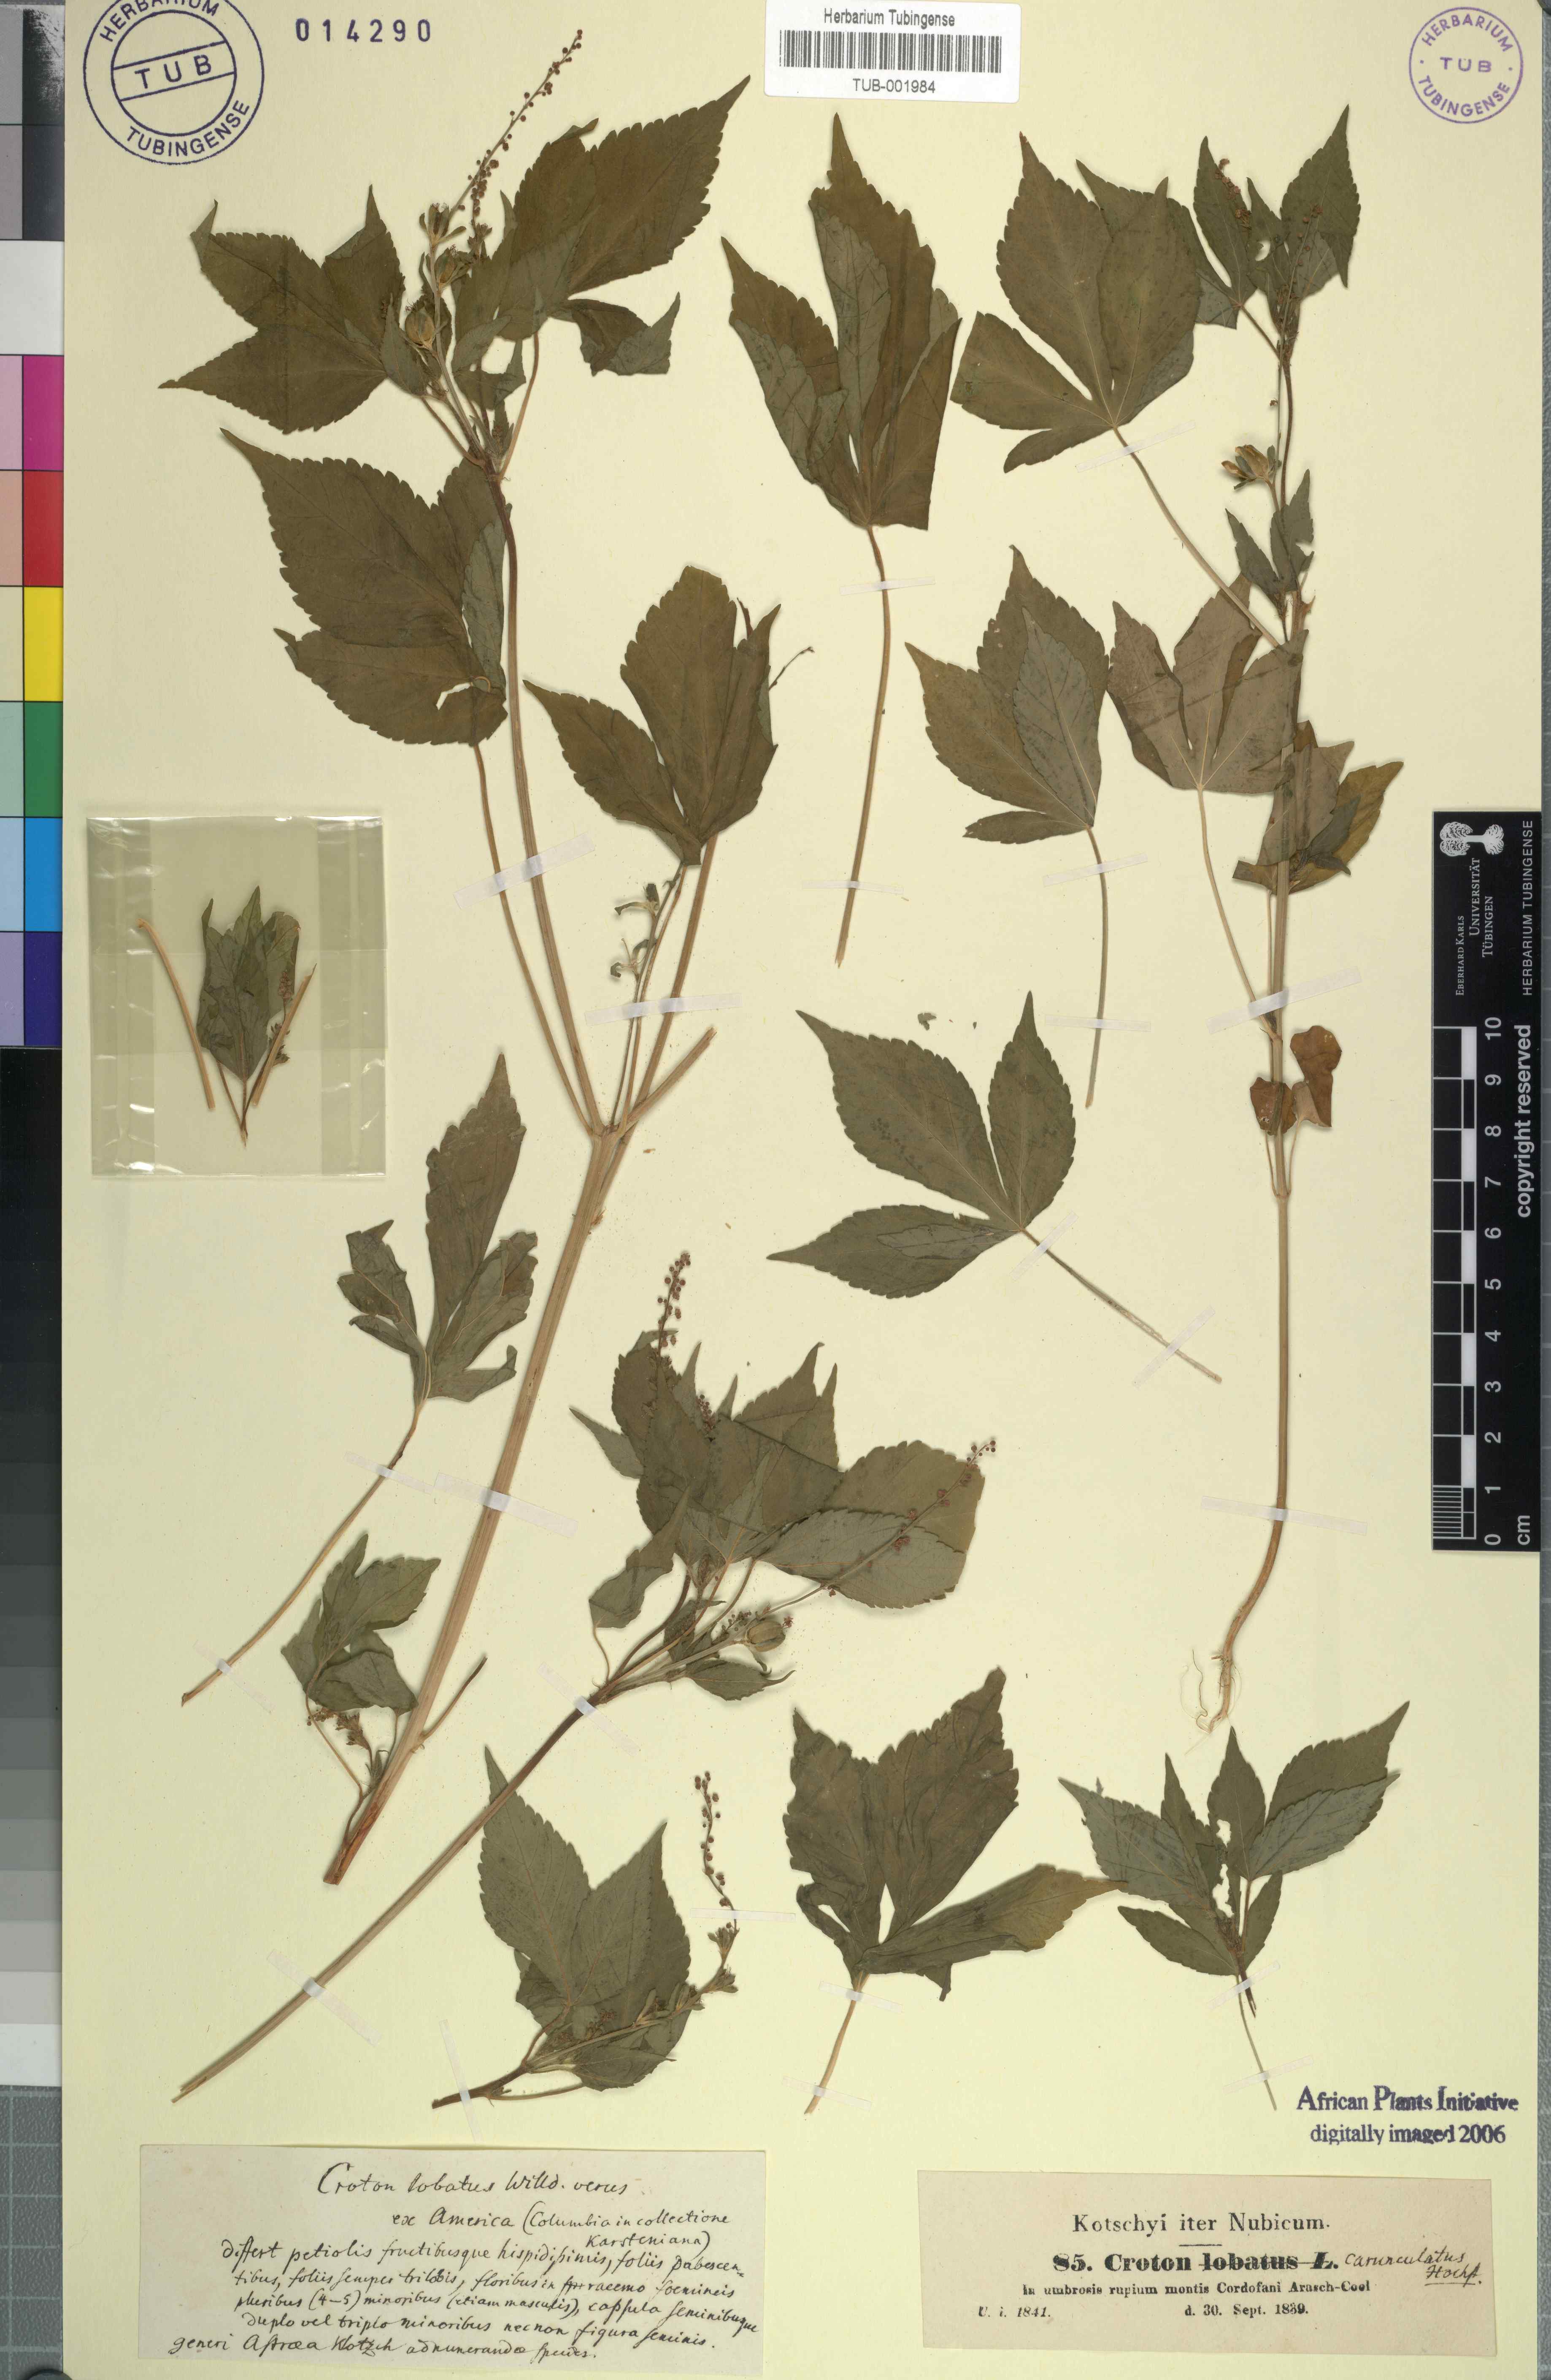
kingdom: Plantae
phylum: Tracheophyta
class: Magnoliopsida
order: Malpighiales
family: Euphorbiaceae
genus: Astraea
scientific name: Astraea lobata
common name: Lobed croton
